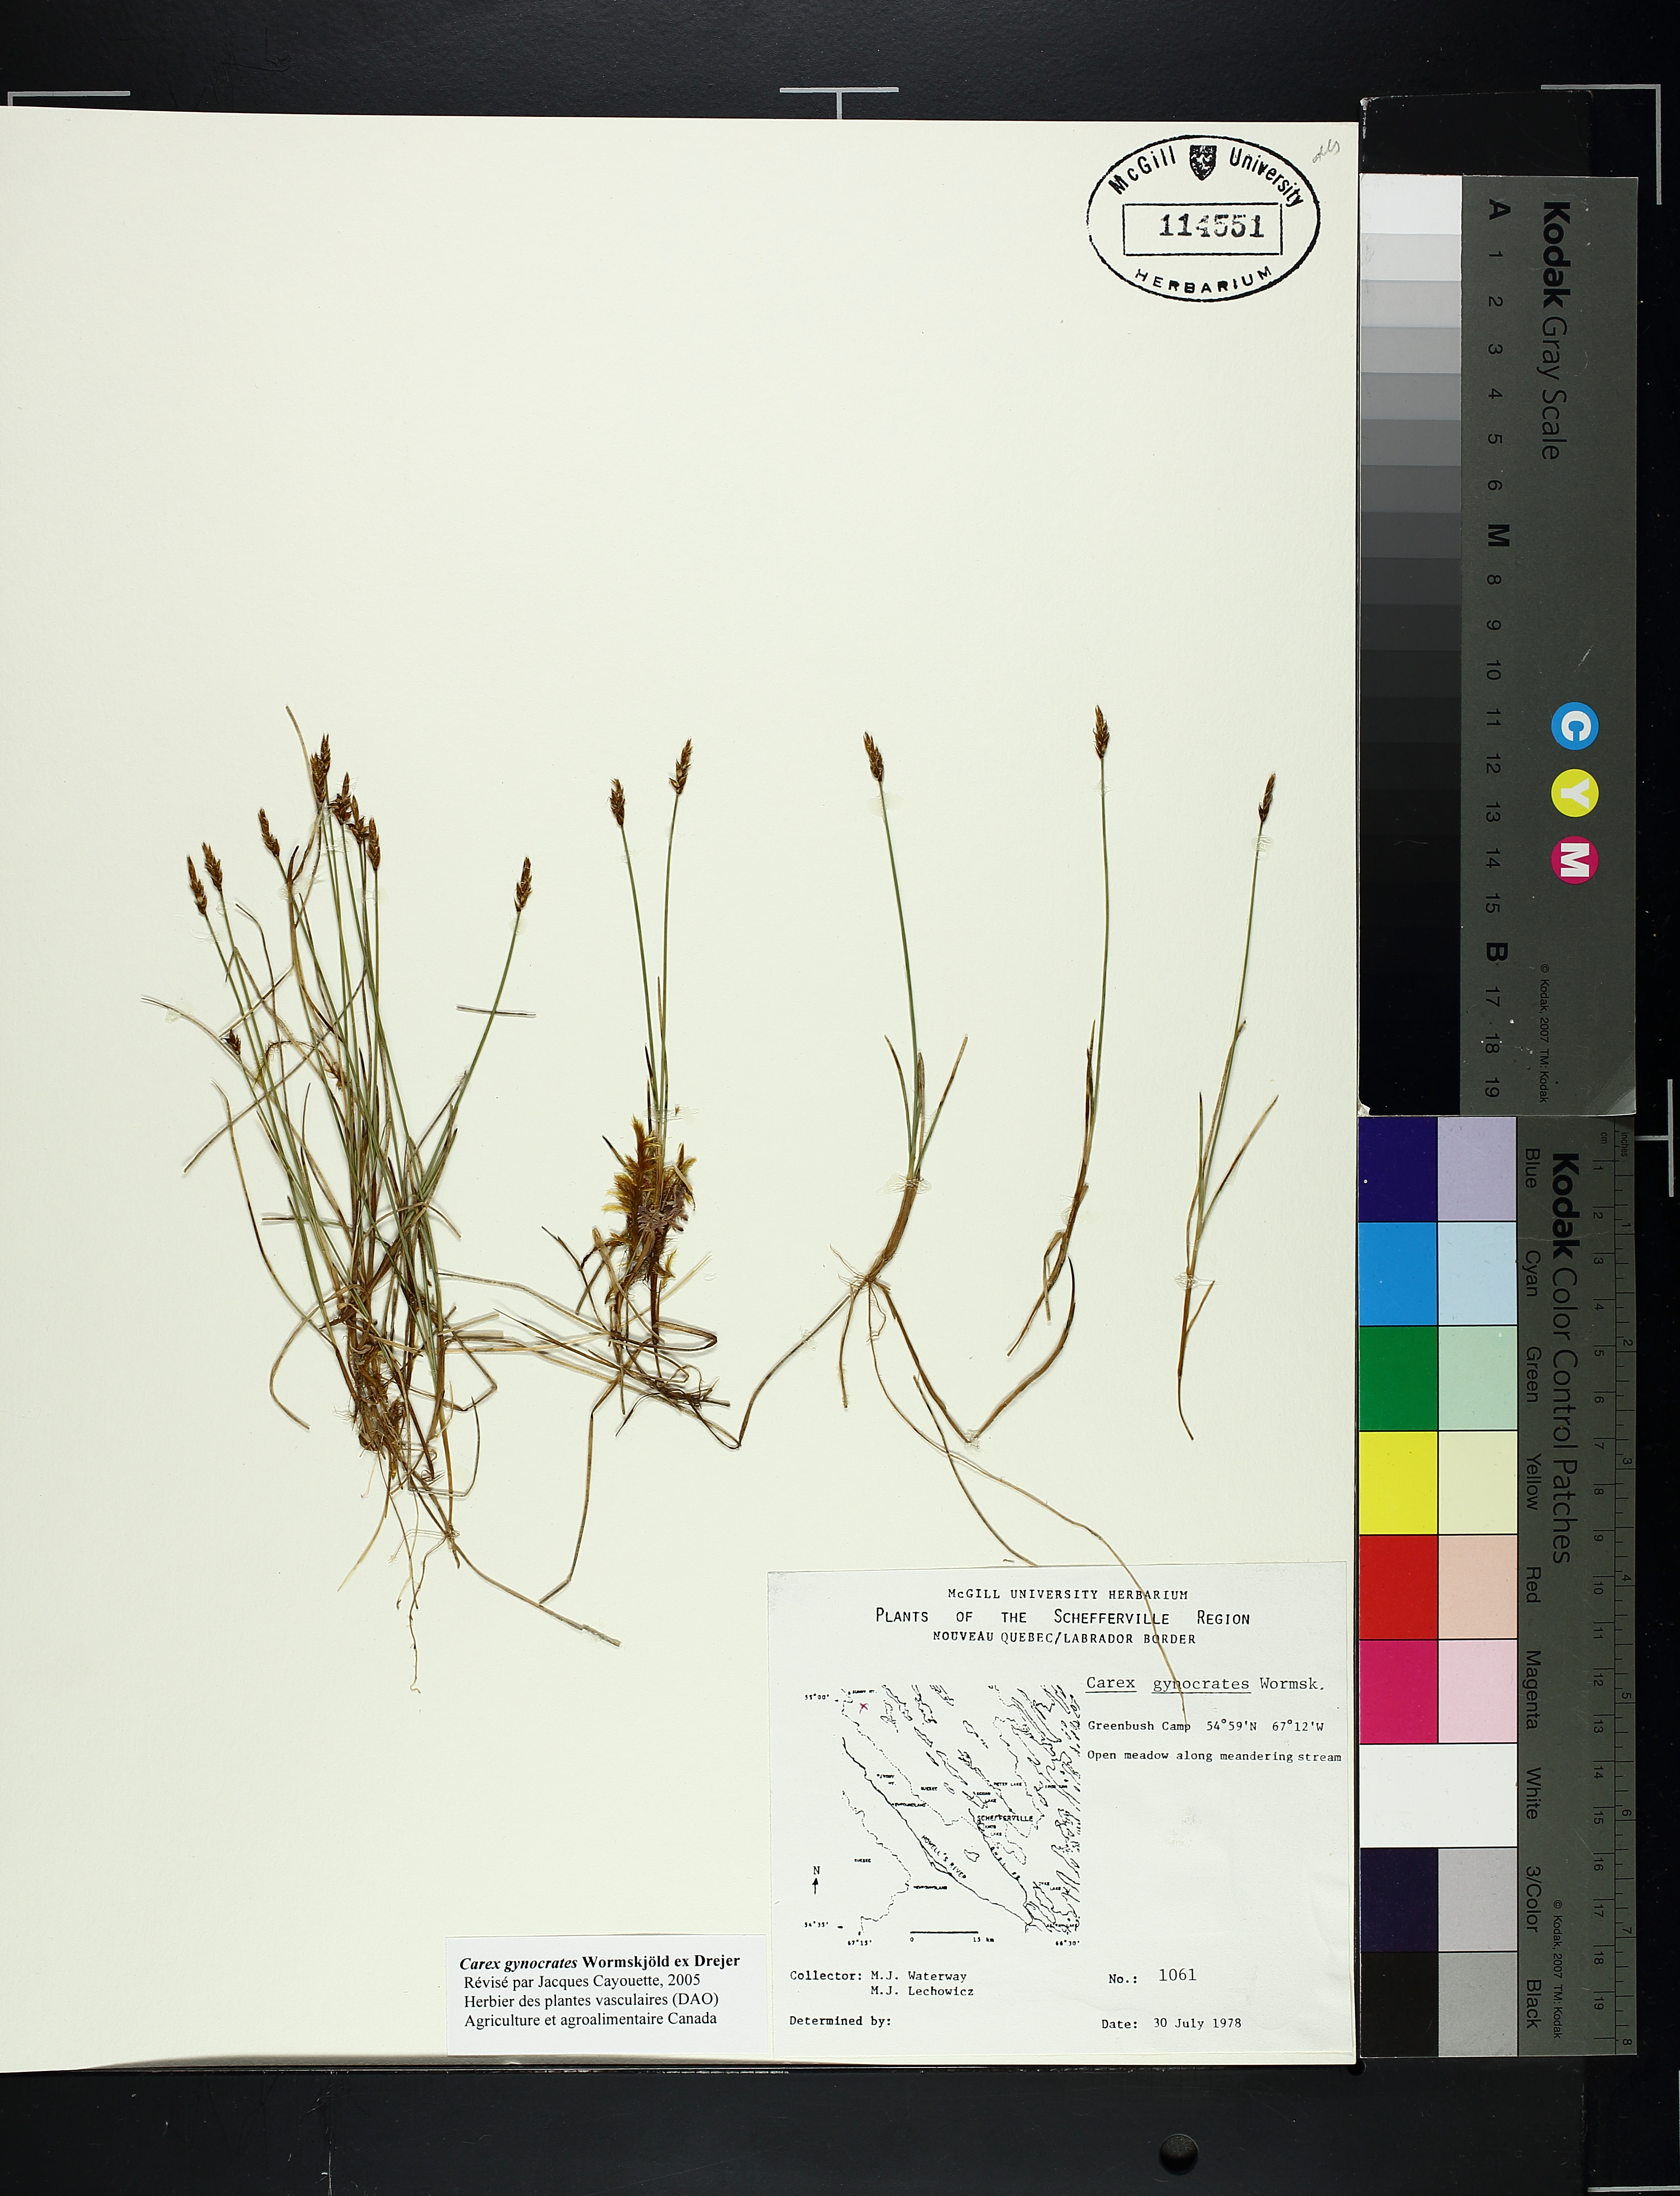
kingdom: Plantae
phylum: Tracheophyta
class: Liliopsida
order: Poales
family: Cyperaceae
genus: Carex
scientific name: Carex gynocrates
